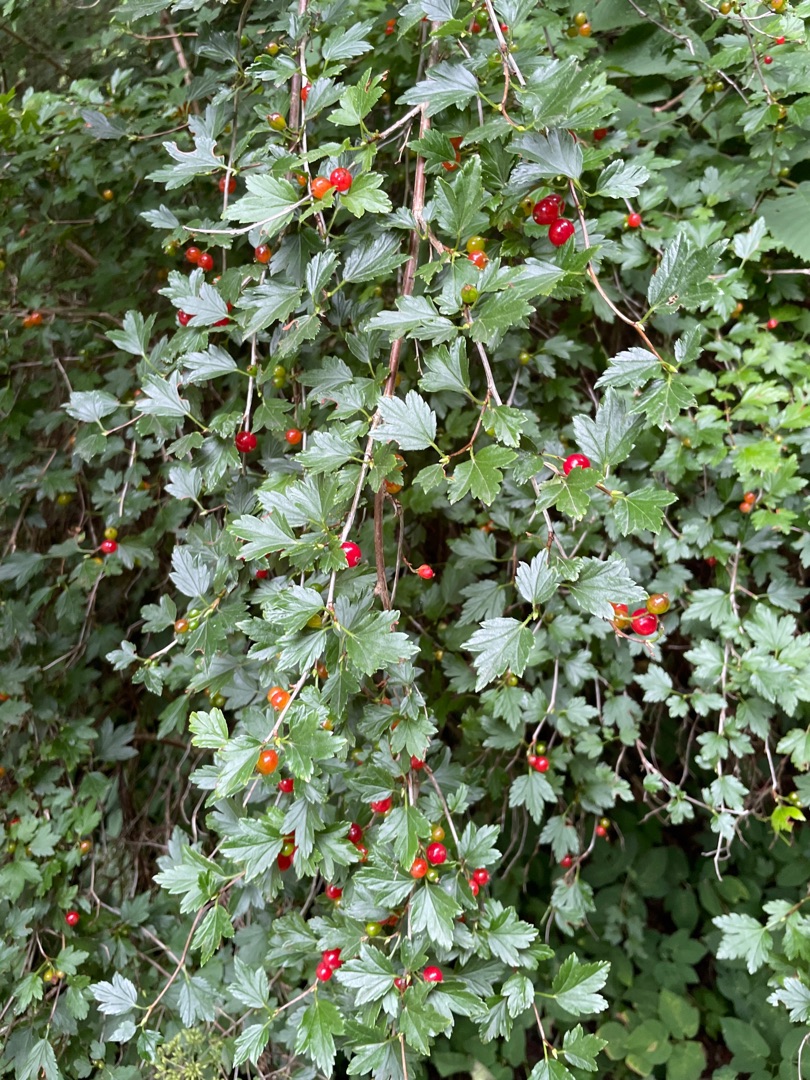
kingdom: Plantae
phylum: Tracheophyta
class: Magnoliopsida
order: Saxifragales
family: Grossulariaceae
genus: Ribes
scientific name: Ribes alpinum
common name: Fjeld-ribs
